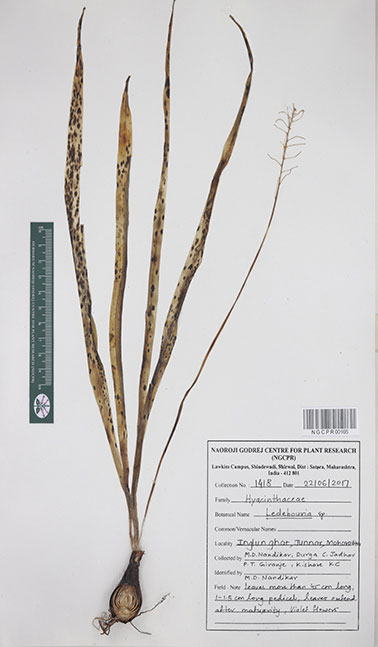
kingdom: Plantae
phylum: Tracheophyta
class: Liliopsida
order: Asparagales
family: Asparagaceae
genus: Ledebouria
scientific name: Ledebouria
